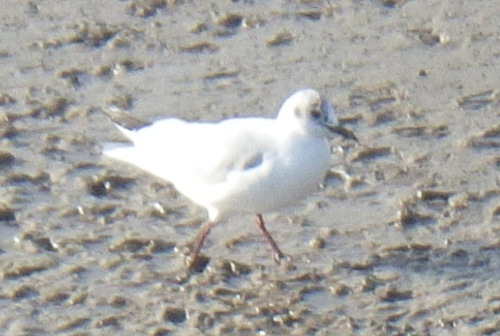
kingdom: Animalia
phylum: Chordata
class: Aves
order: Charadriiformes
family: Laridae
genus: Chroicocephalus
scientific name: Chroicocephalus ridibundus
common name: Black-headed gull
